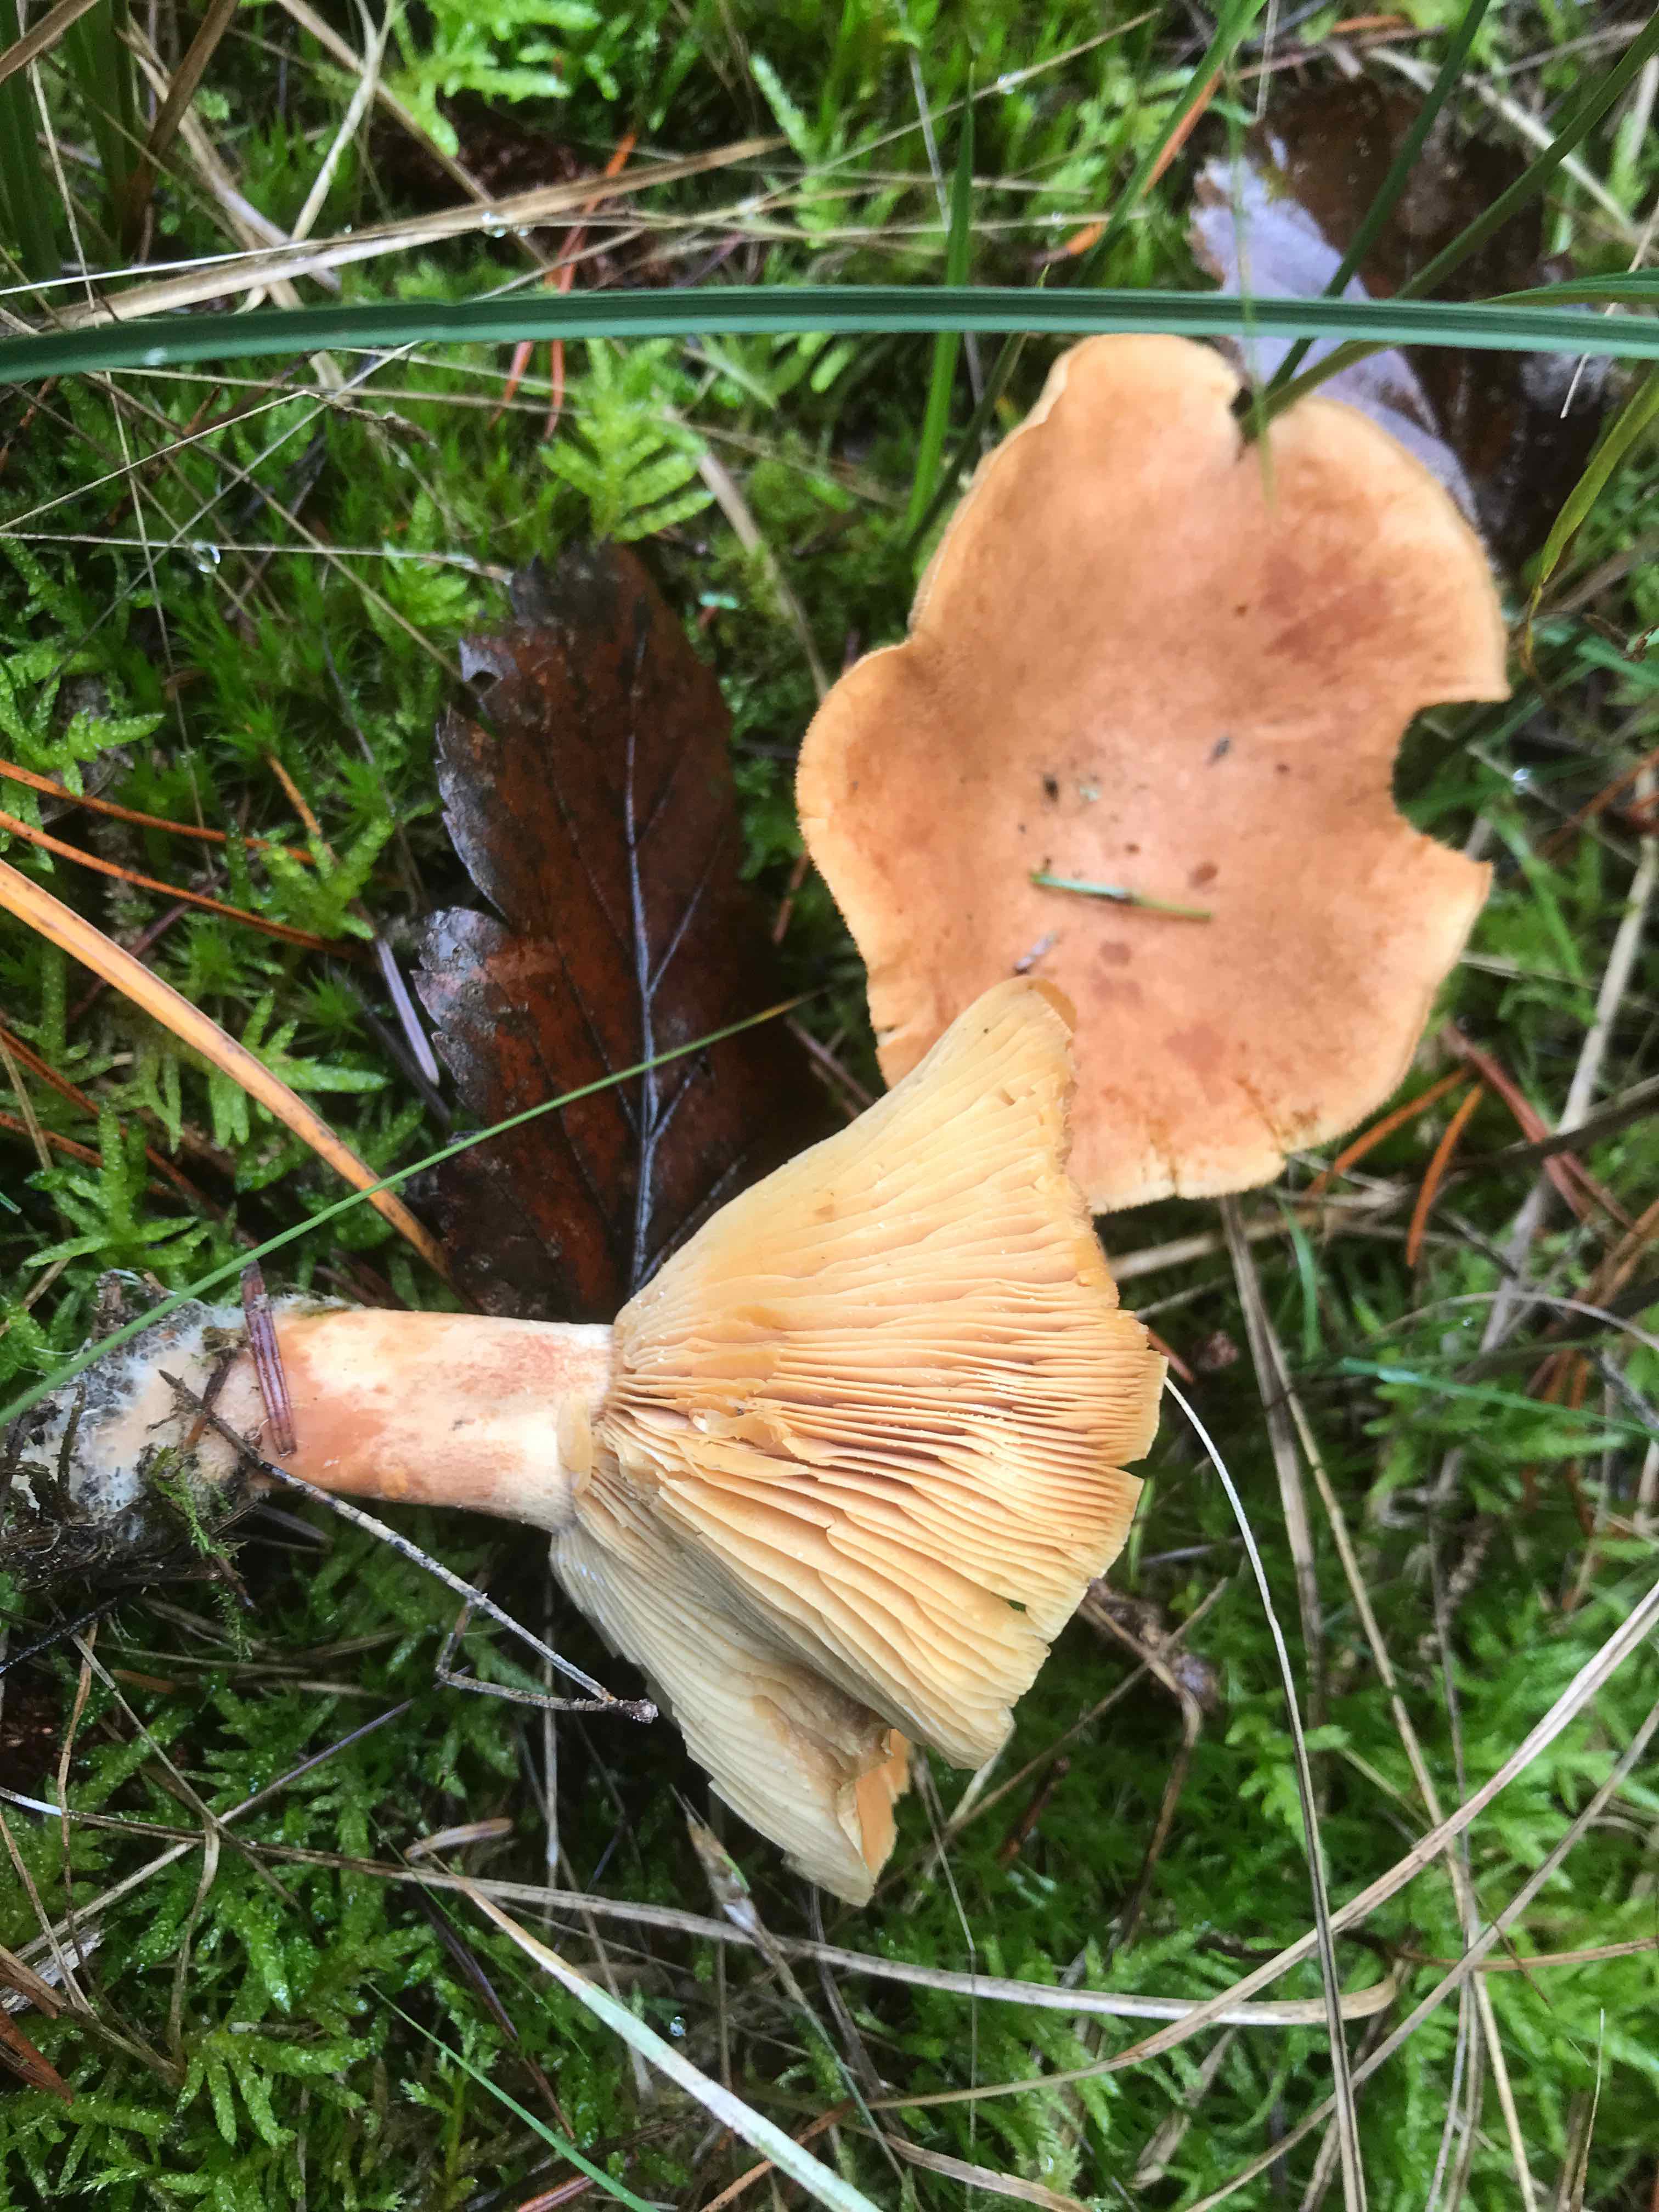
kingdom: Fungi
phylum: Basidiomycota
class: Agaricomycetes
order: Russulales
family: Russulaceae
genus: Lactarius
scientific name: Lactarius helvus
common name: mose-mælkehat
